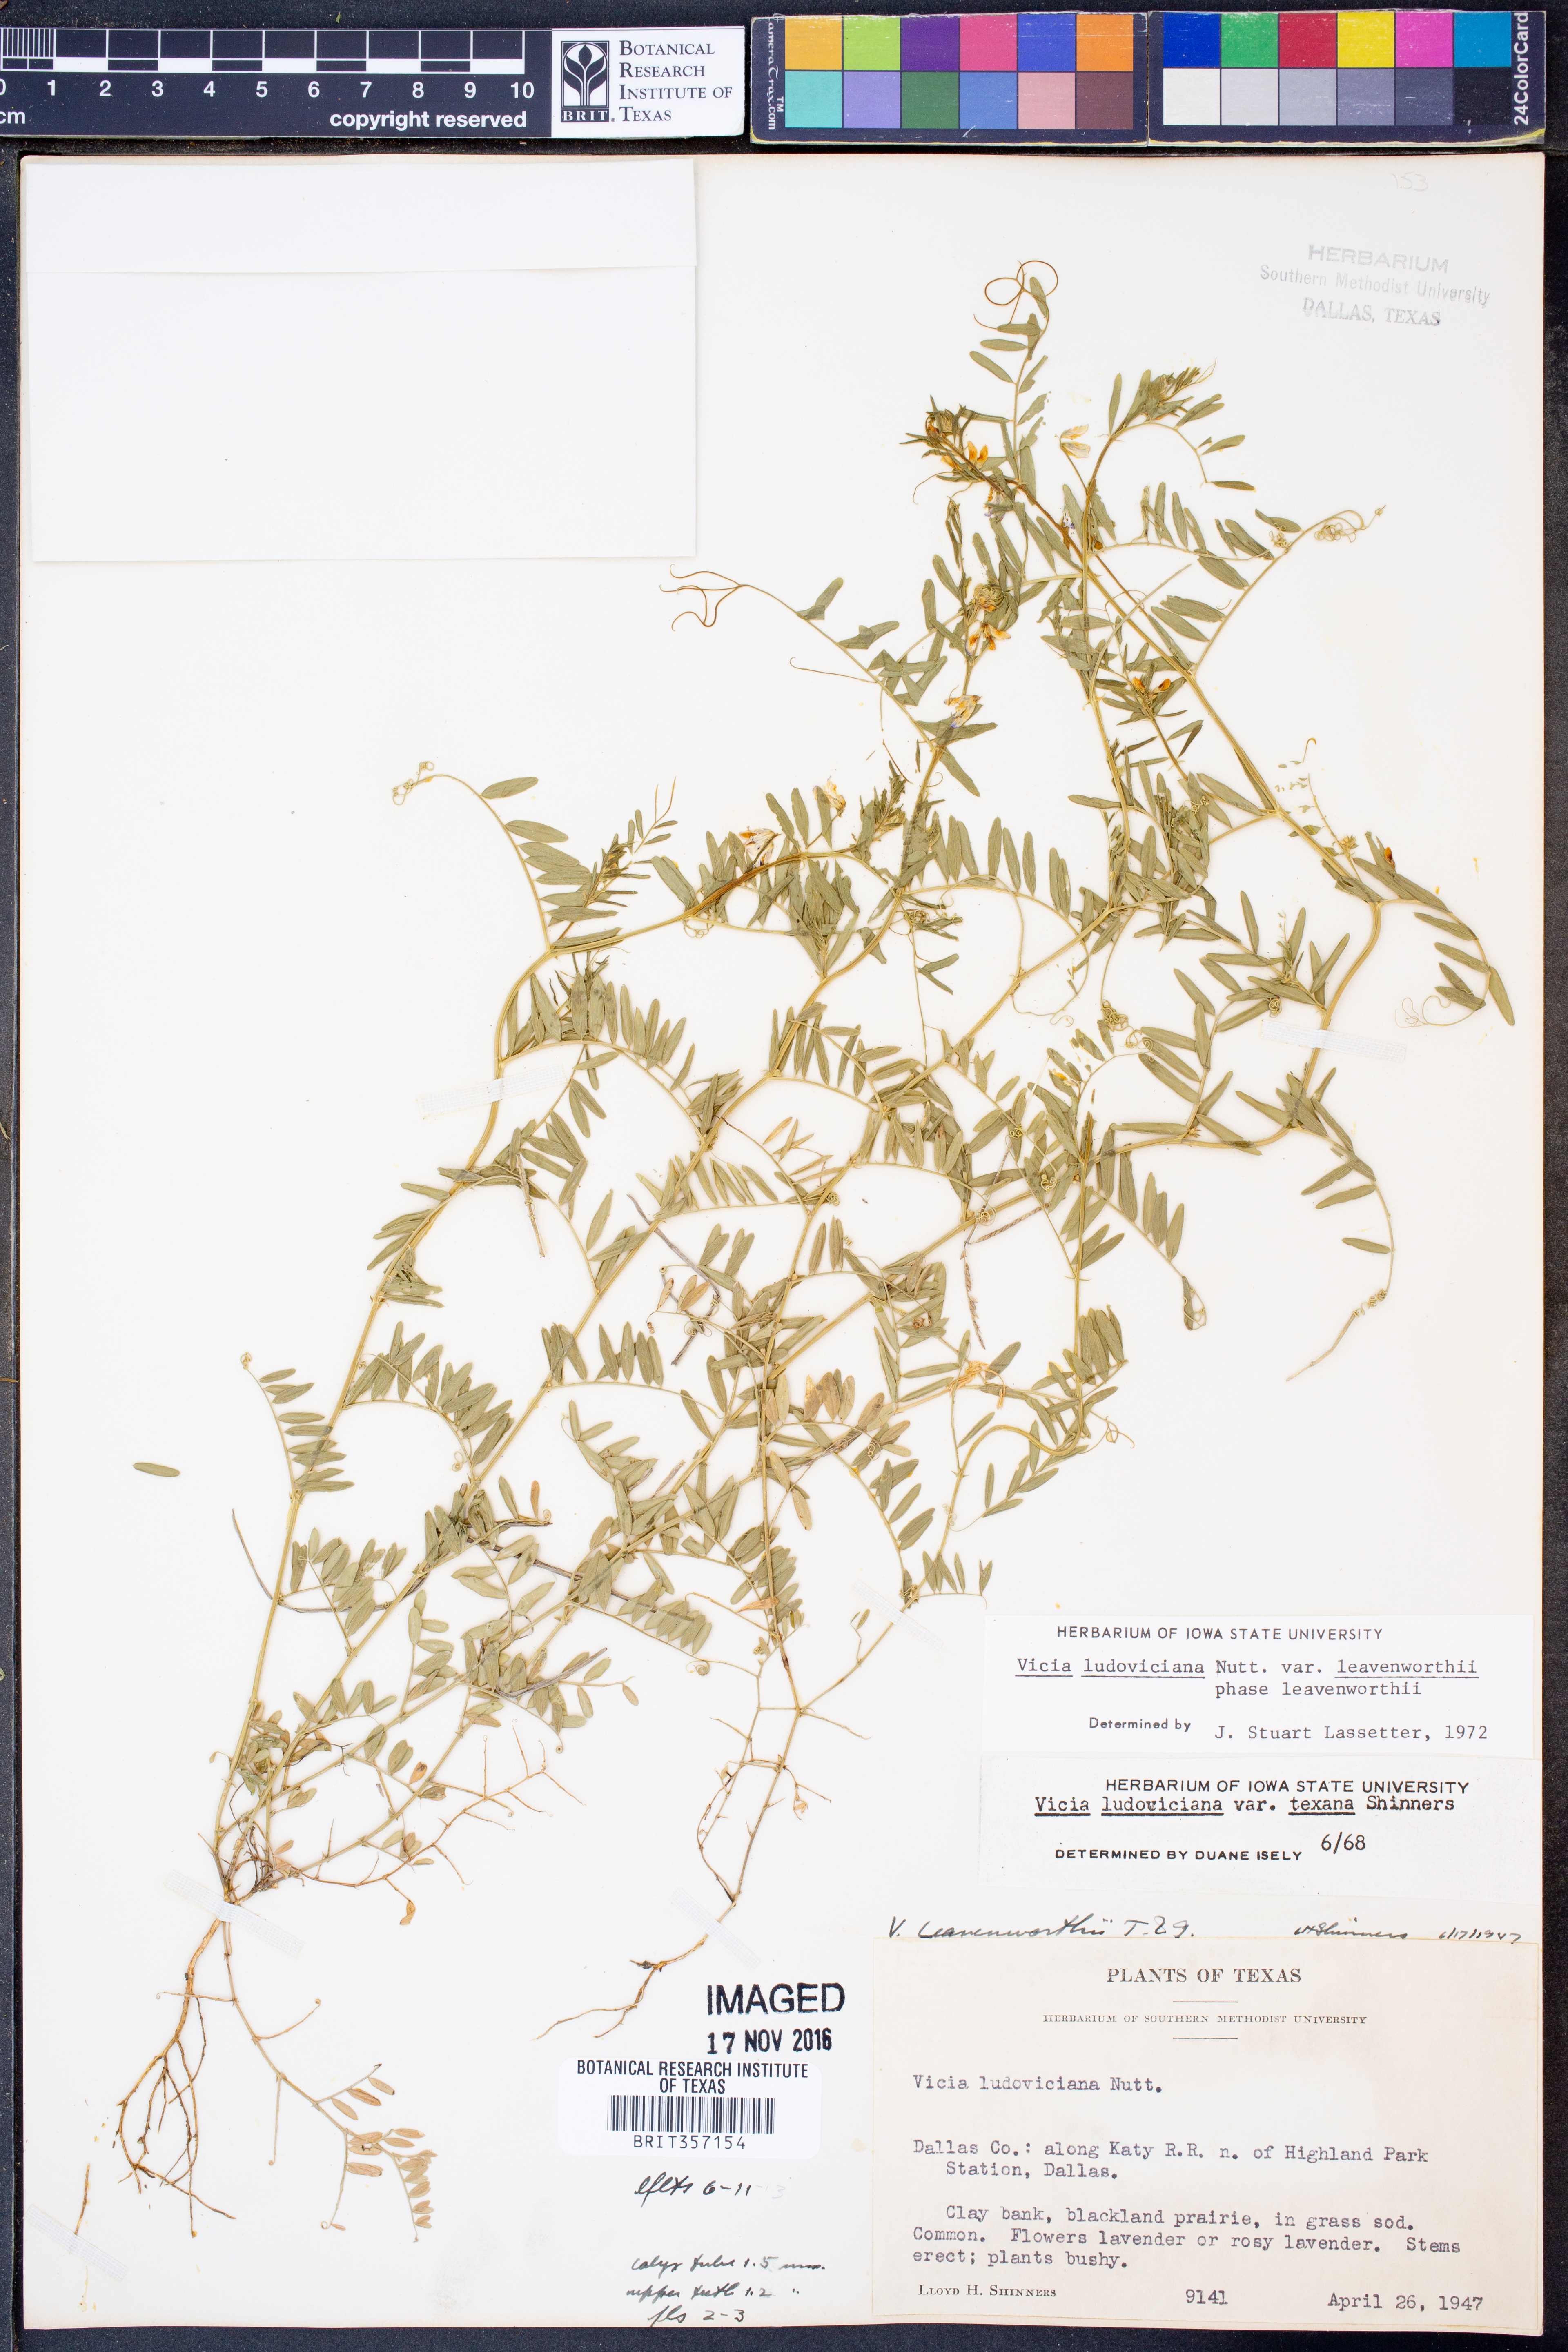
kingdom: Plantae
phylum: Tracheophyta
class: Magnoliopsida
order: Fabales
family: Fabaceae
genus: Vicia
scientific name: Vicia ludoviciana
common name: Louisiana vetch
